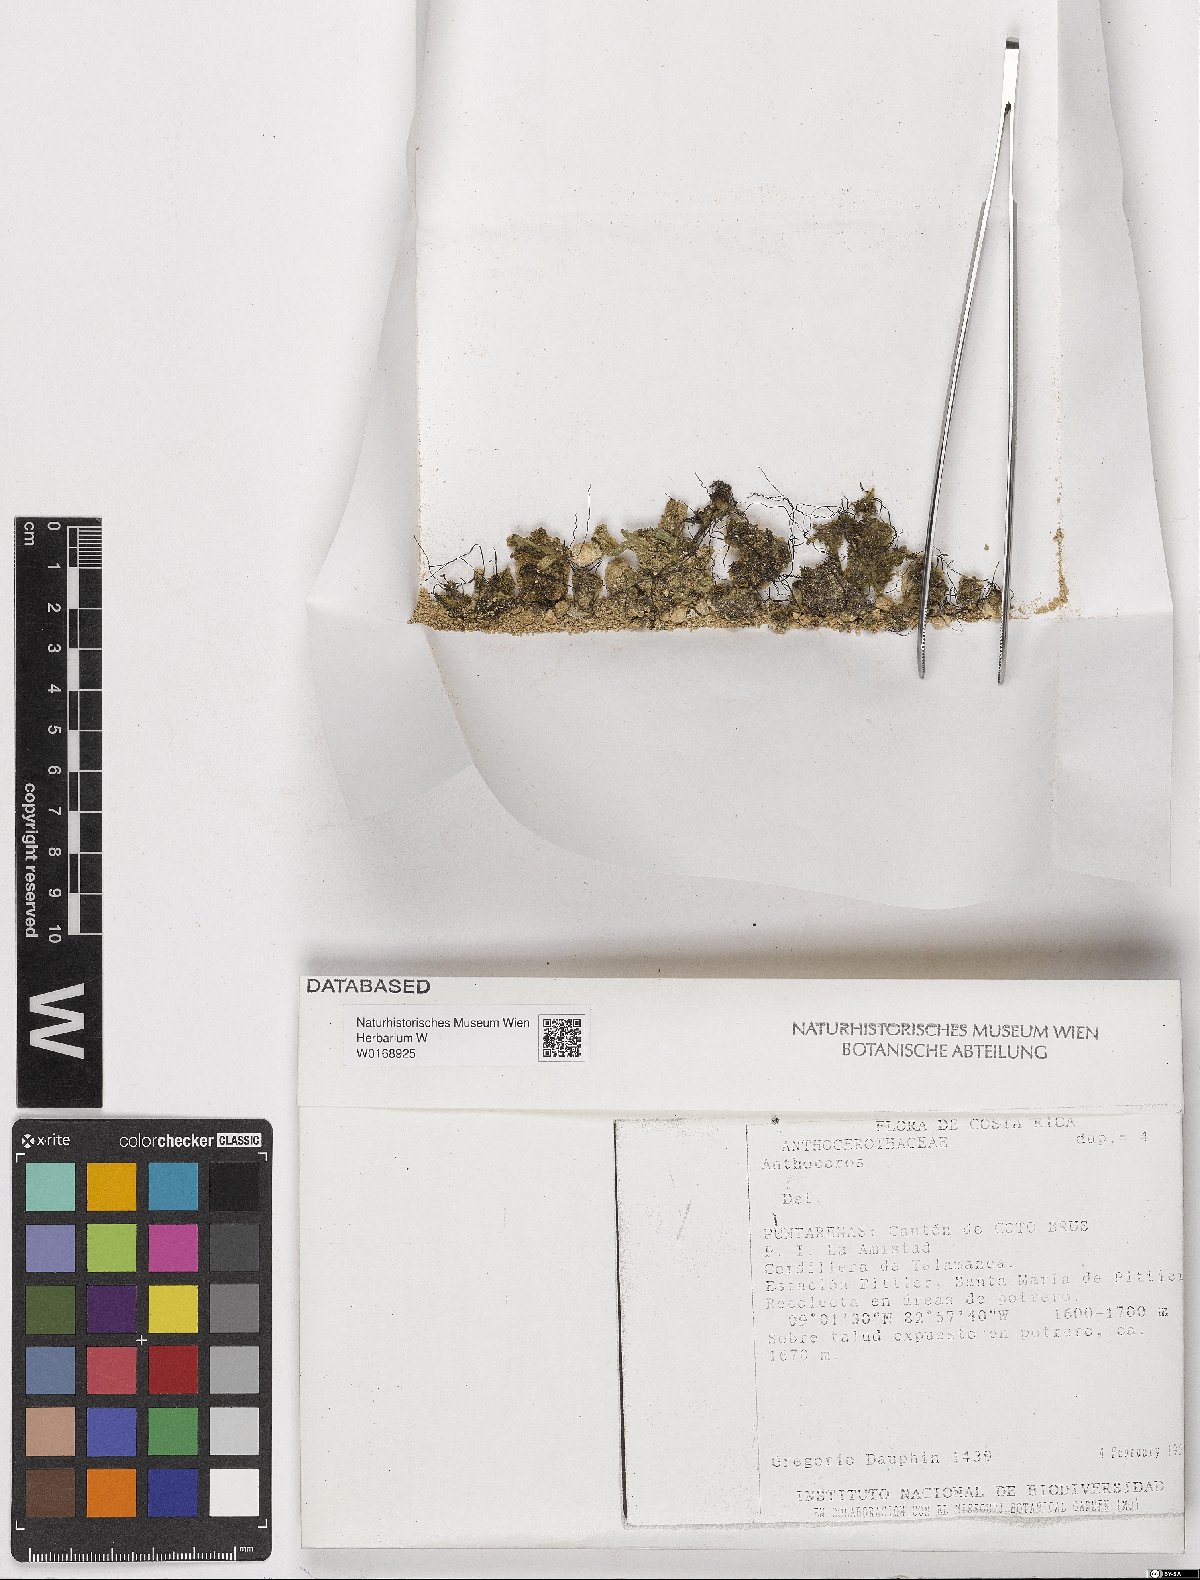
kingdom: Plantae
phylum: Anthocerotophyta
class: Anthocerotopsida
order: Anthocerotales
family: Anthocerotaceae
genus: Anthoceros
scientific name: Anthoceros
